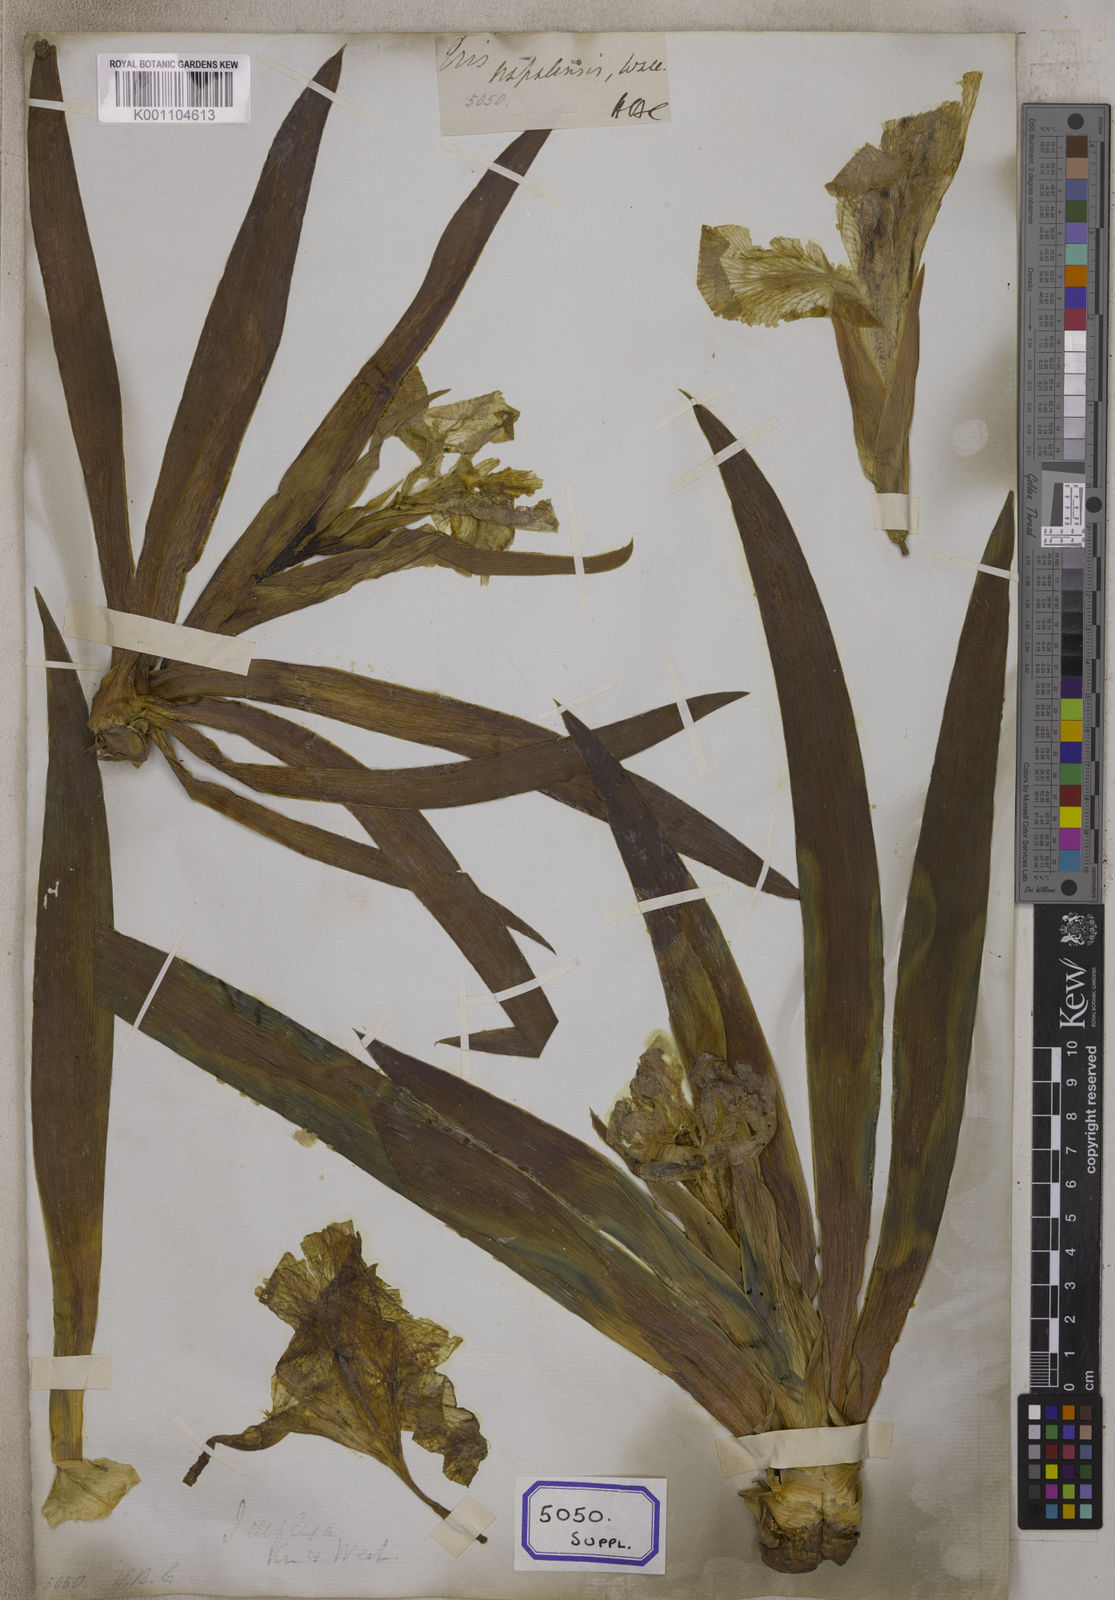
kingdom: Plantae
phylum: Tracheophyta
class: Liliopsida
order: Asparagales
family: Iridaceae
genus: Iris
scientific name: Iris
